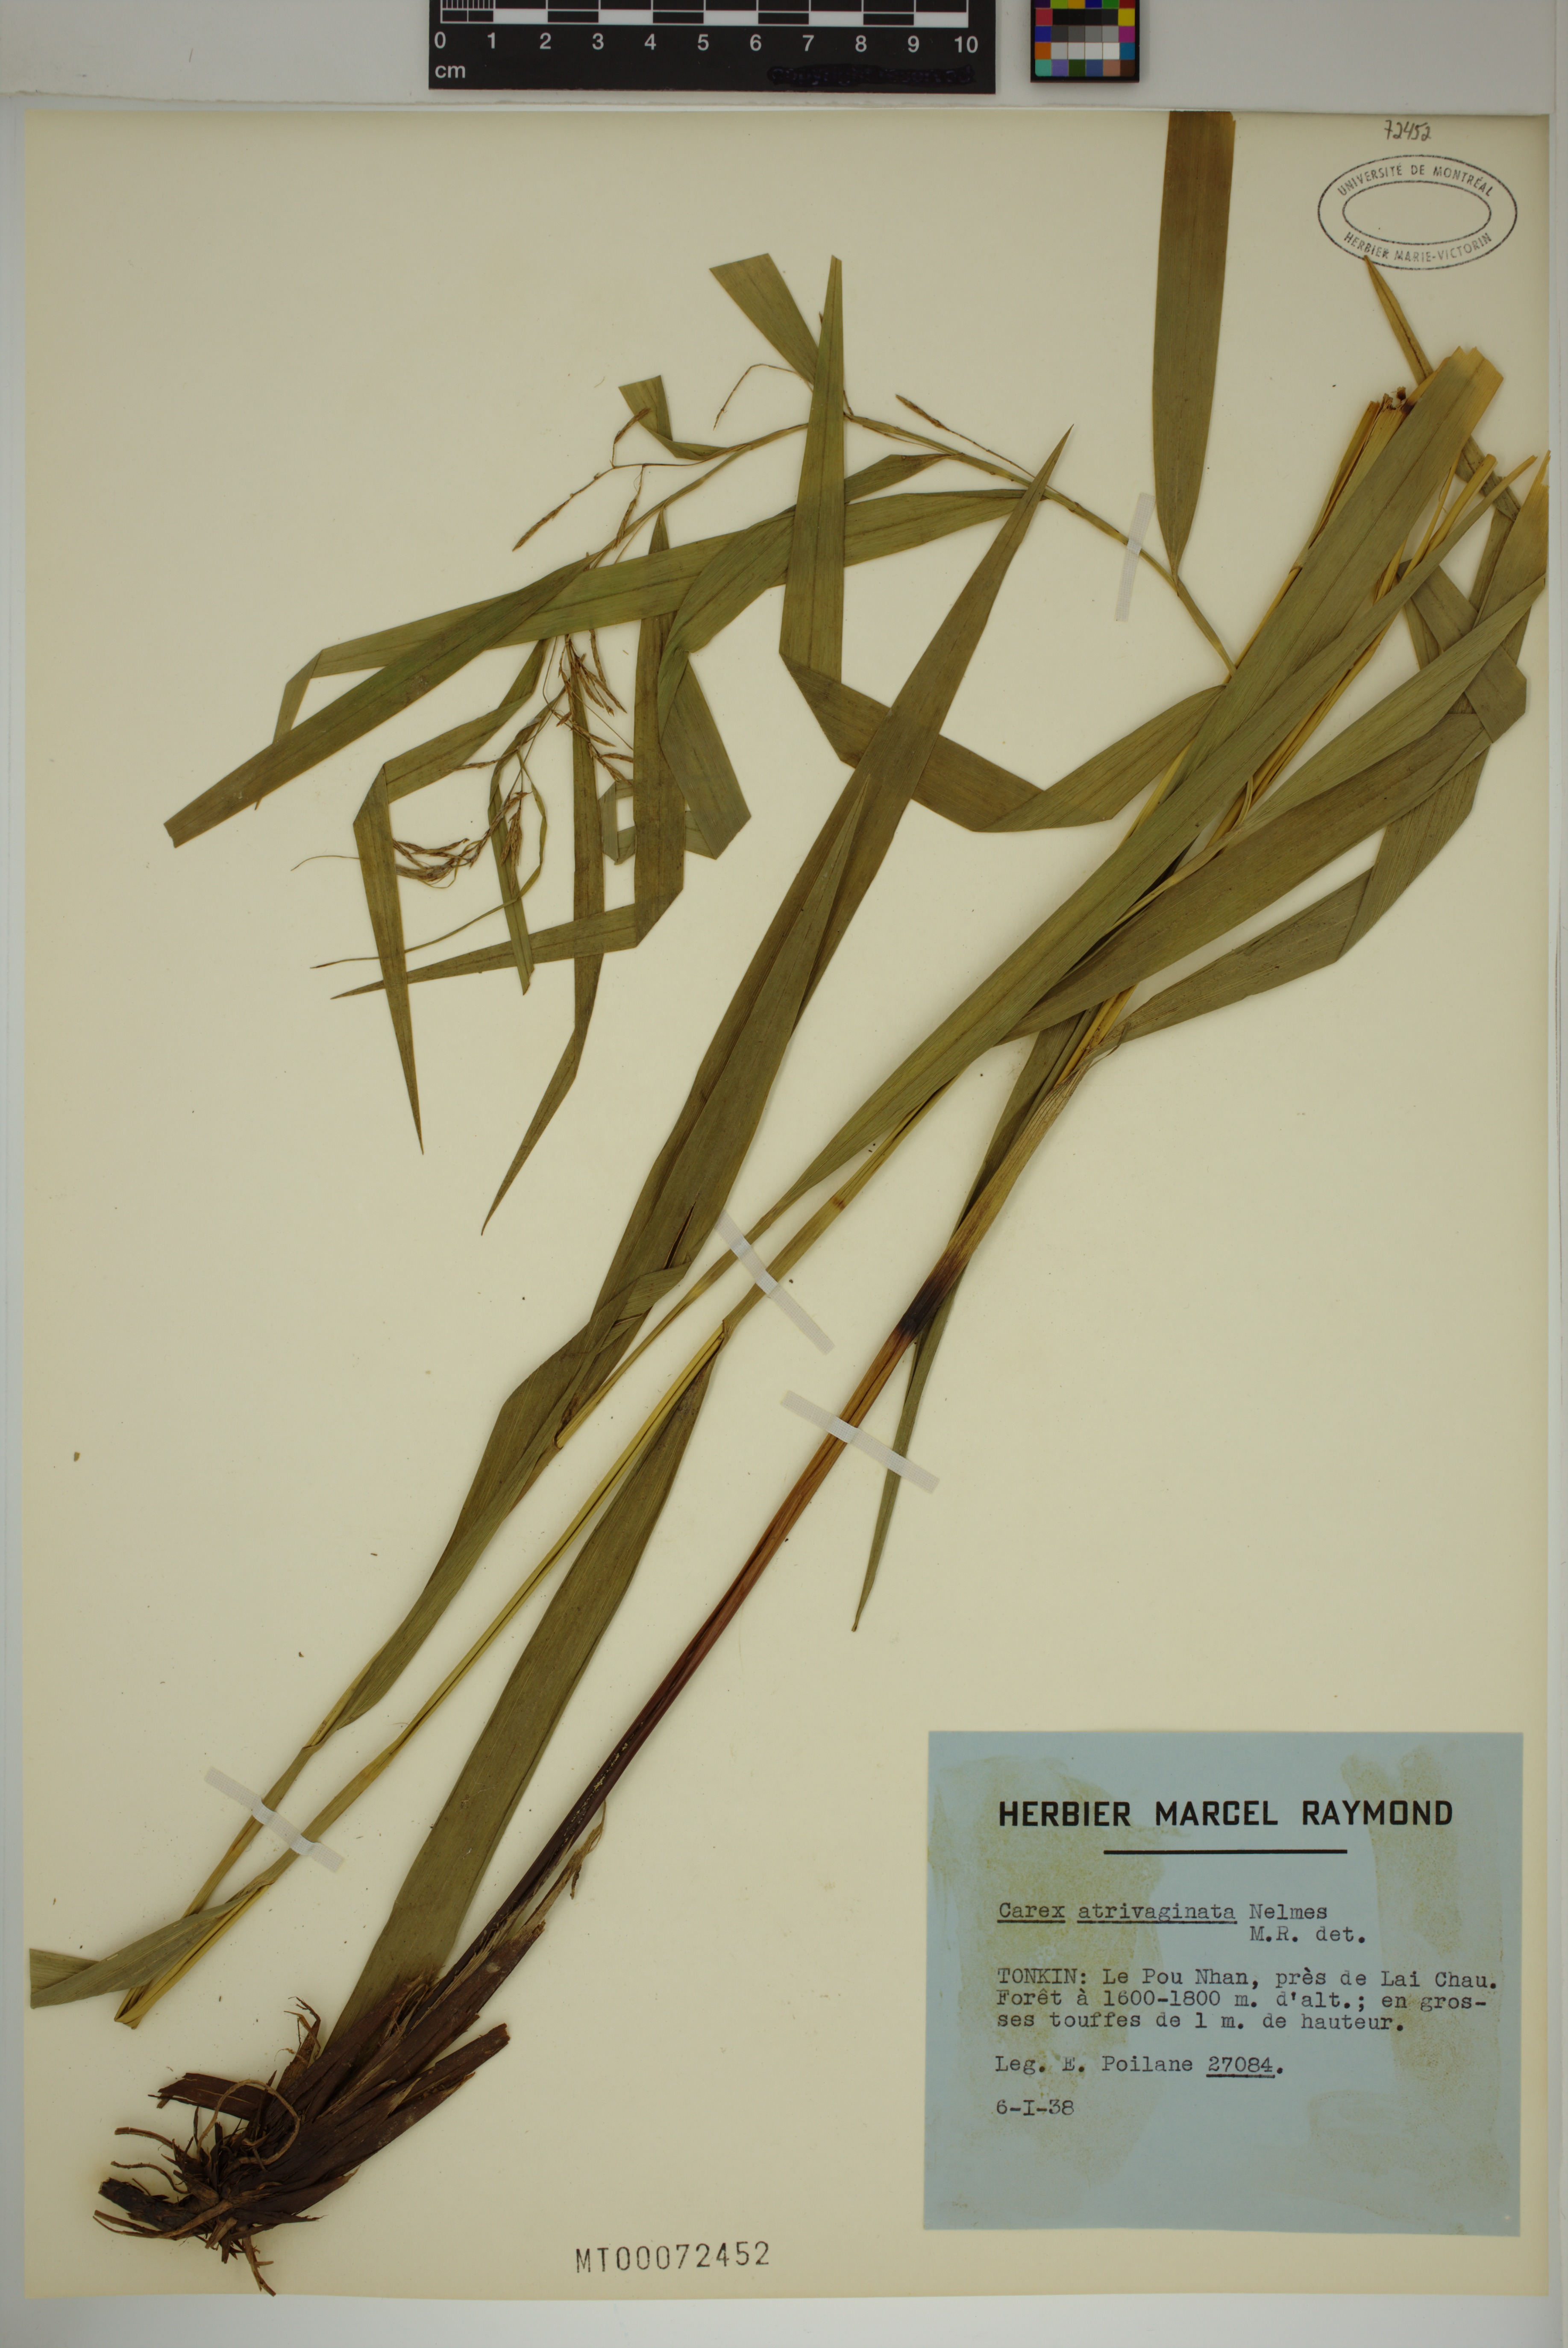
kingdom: Plantae
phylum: Tracheophyta
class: Liliopsida
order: Poales
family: Cyperaceae
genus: Carex
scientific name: Carex atrivaginata
